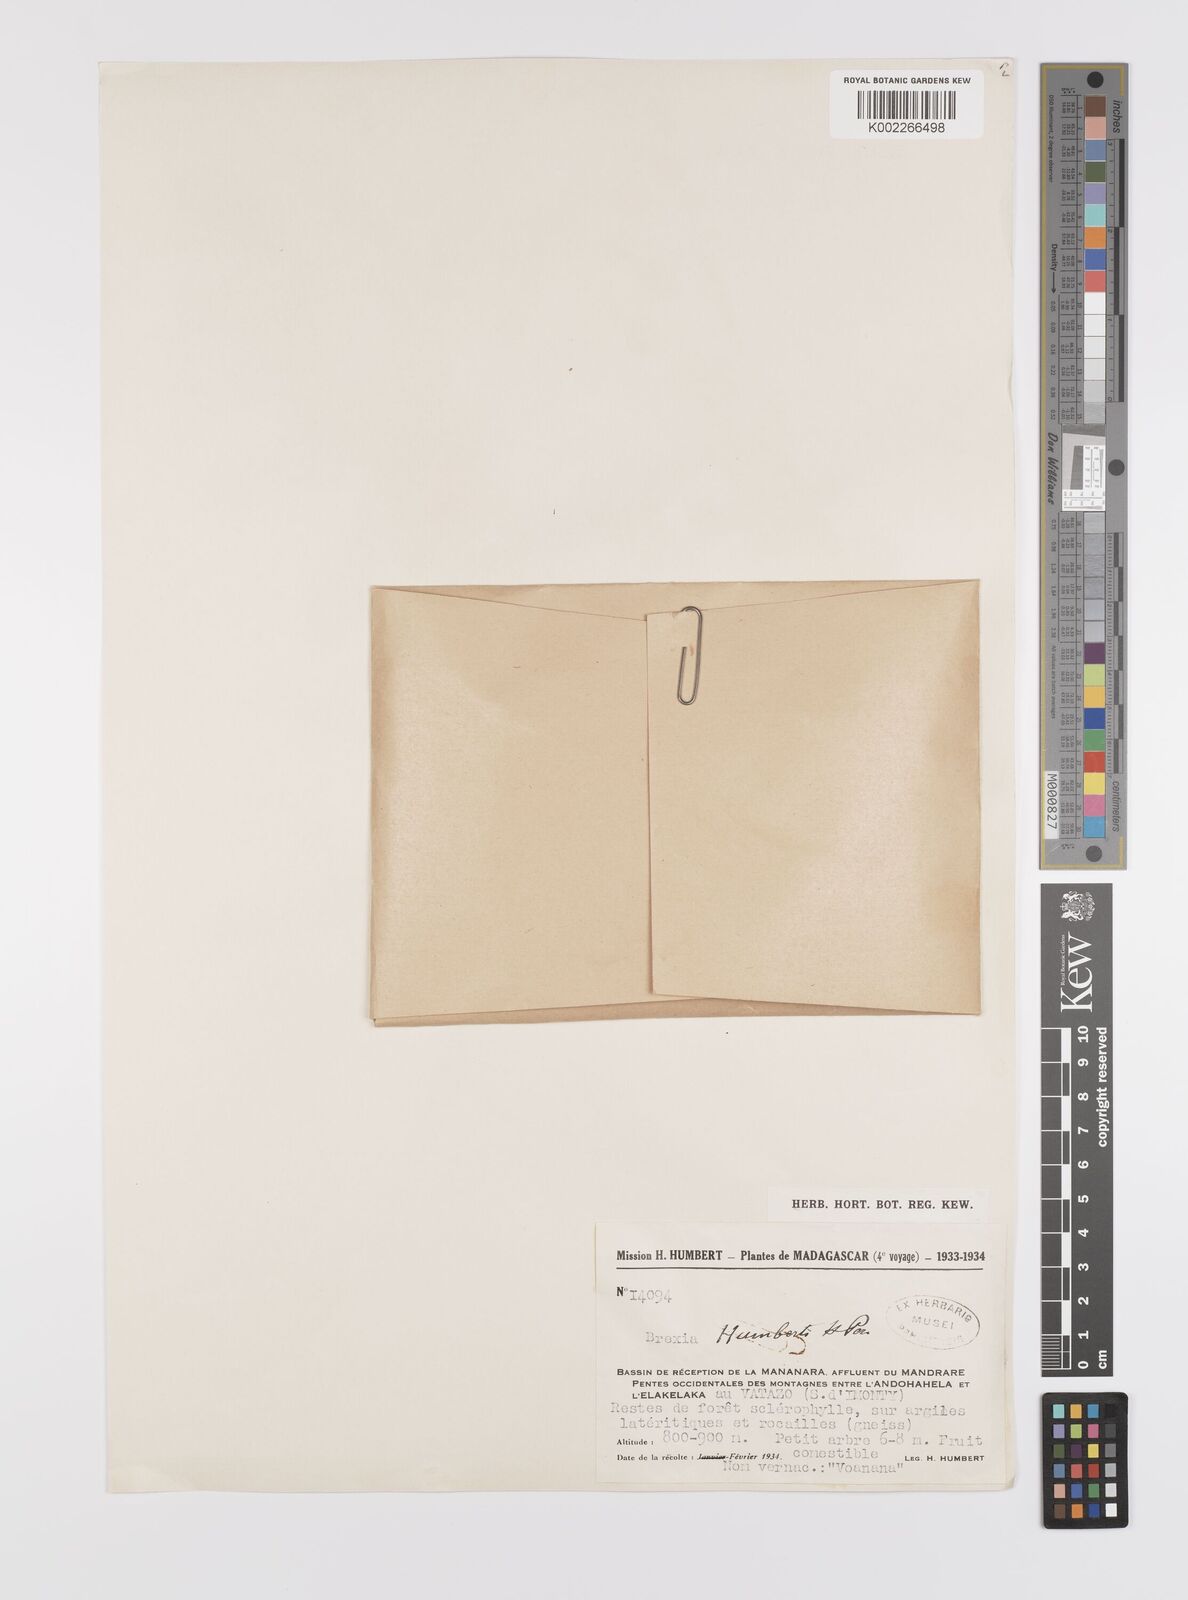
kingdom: Plantae
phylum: Tracheophyta
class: Magnoliopsida
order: Celastrales
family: Celastraceae
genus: Brexia
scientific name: Brexia humbertii
